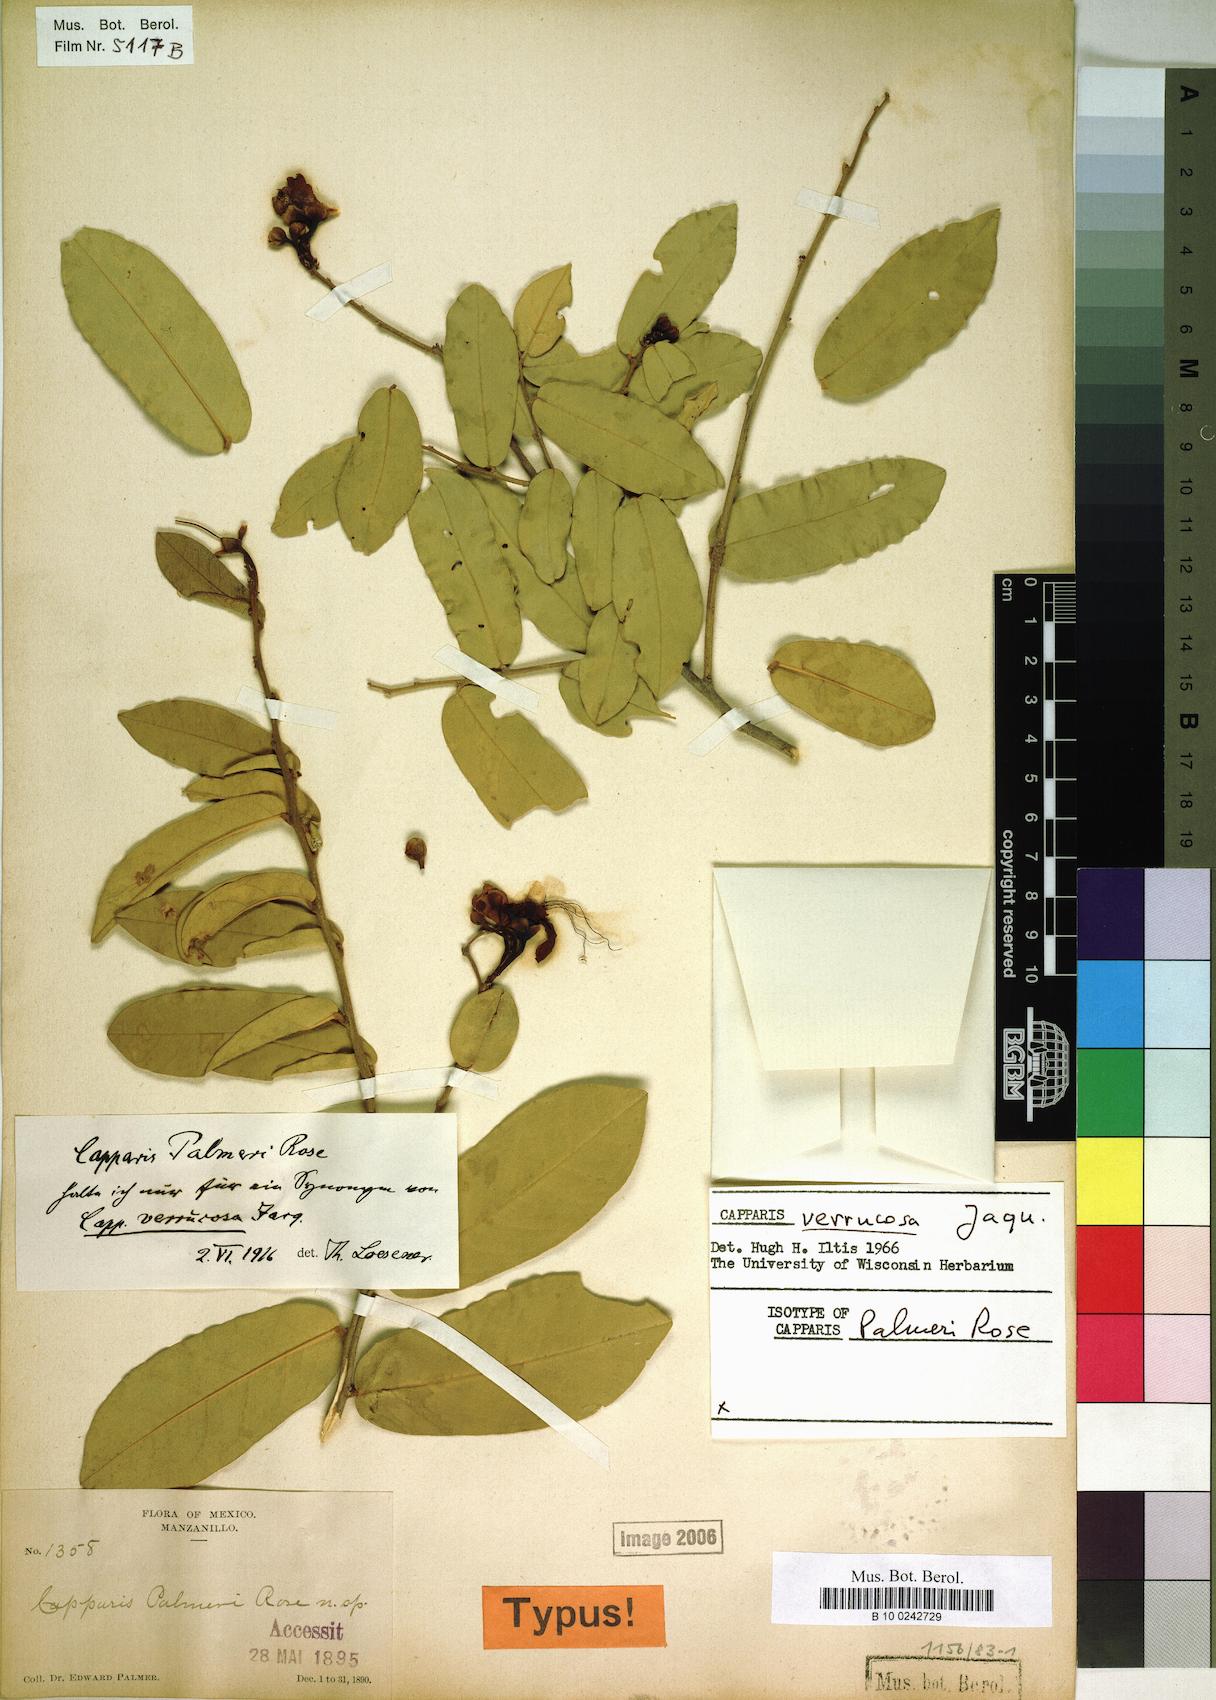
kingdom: Plantae
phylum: Tracheophyta
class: Magnoliopsida
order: Brassicales
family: Capparaceae
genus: Cynophalla
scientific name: Cynophalla verrucosa
